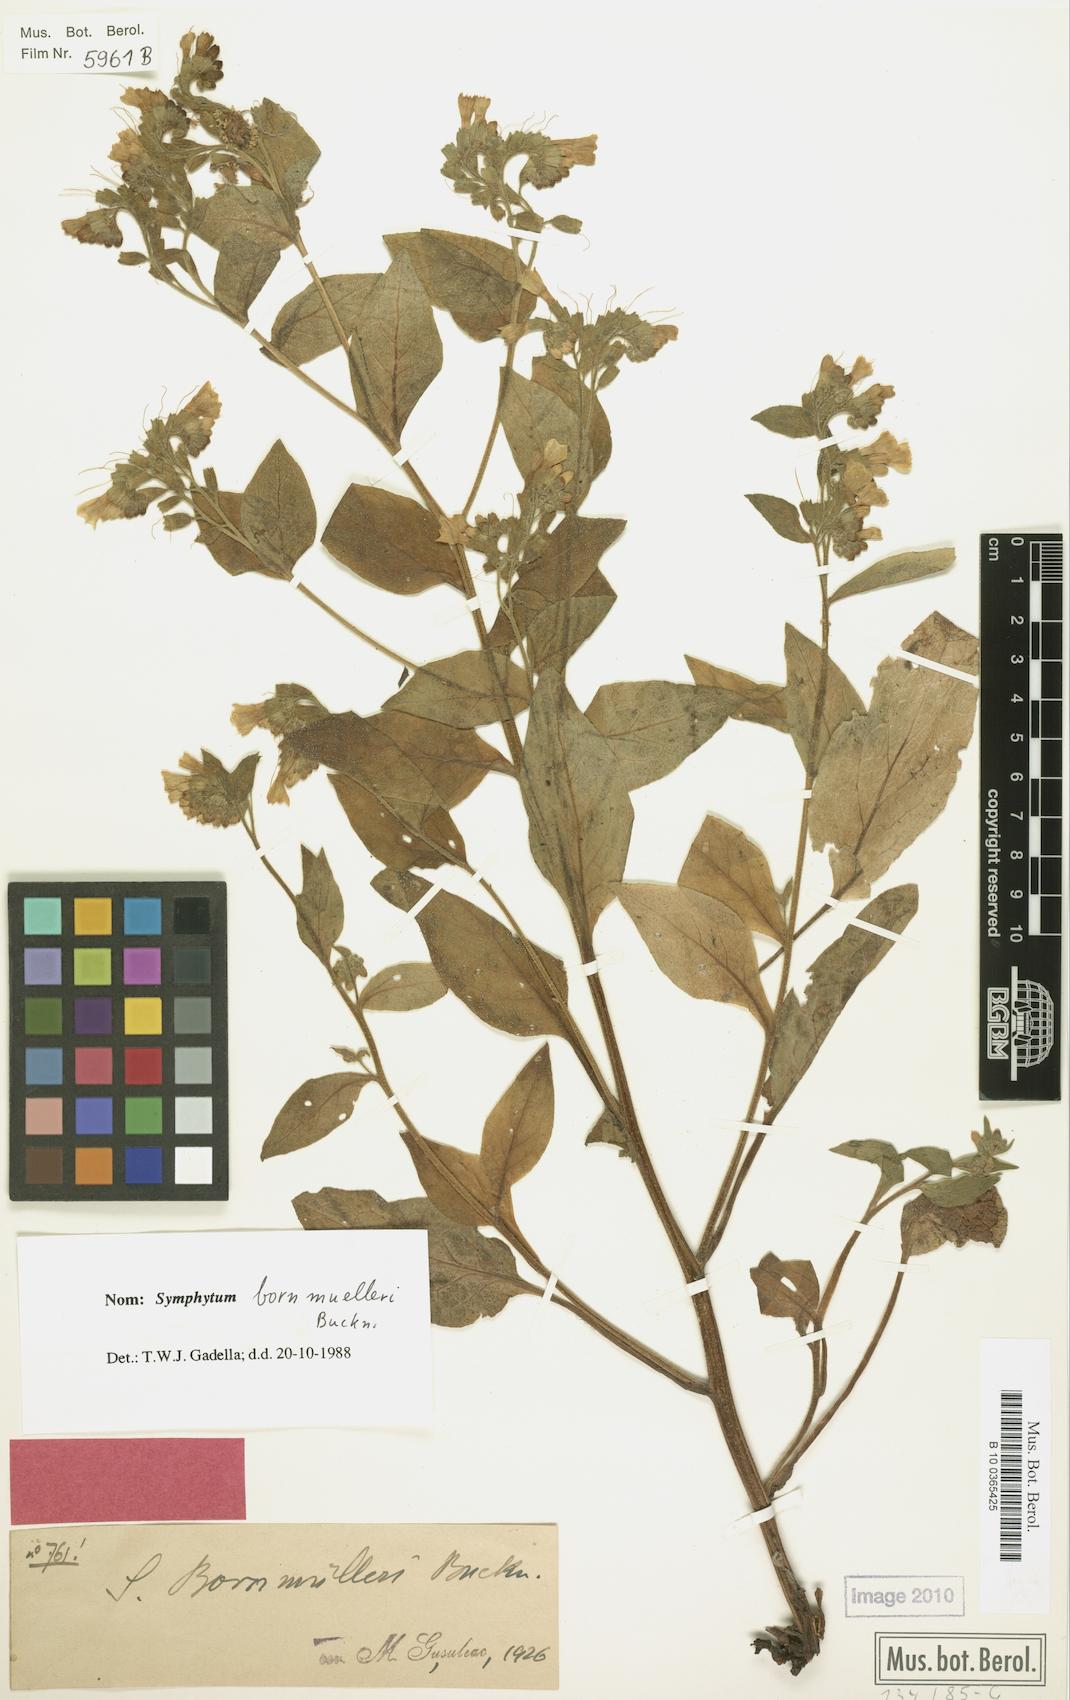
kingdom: Plantae
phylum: Tracheophyta
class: Magnoliopsida
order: Boraginales
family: Boraginaceae
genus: Symphytum
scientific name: Symphytum bornmuelleri
